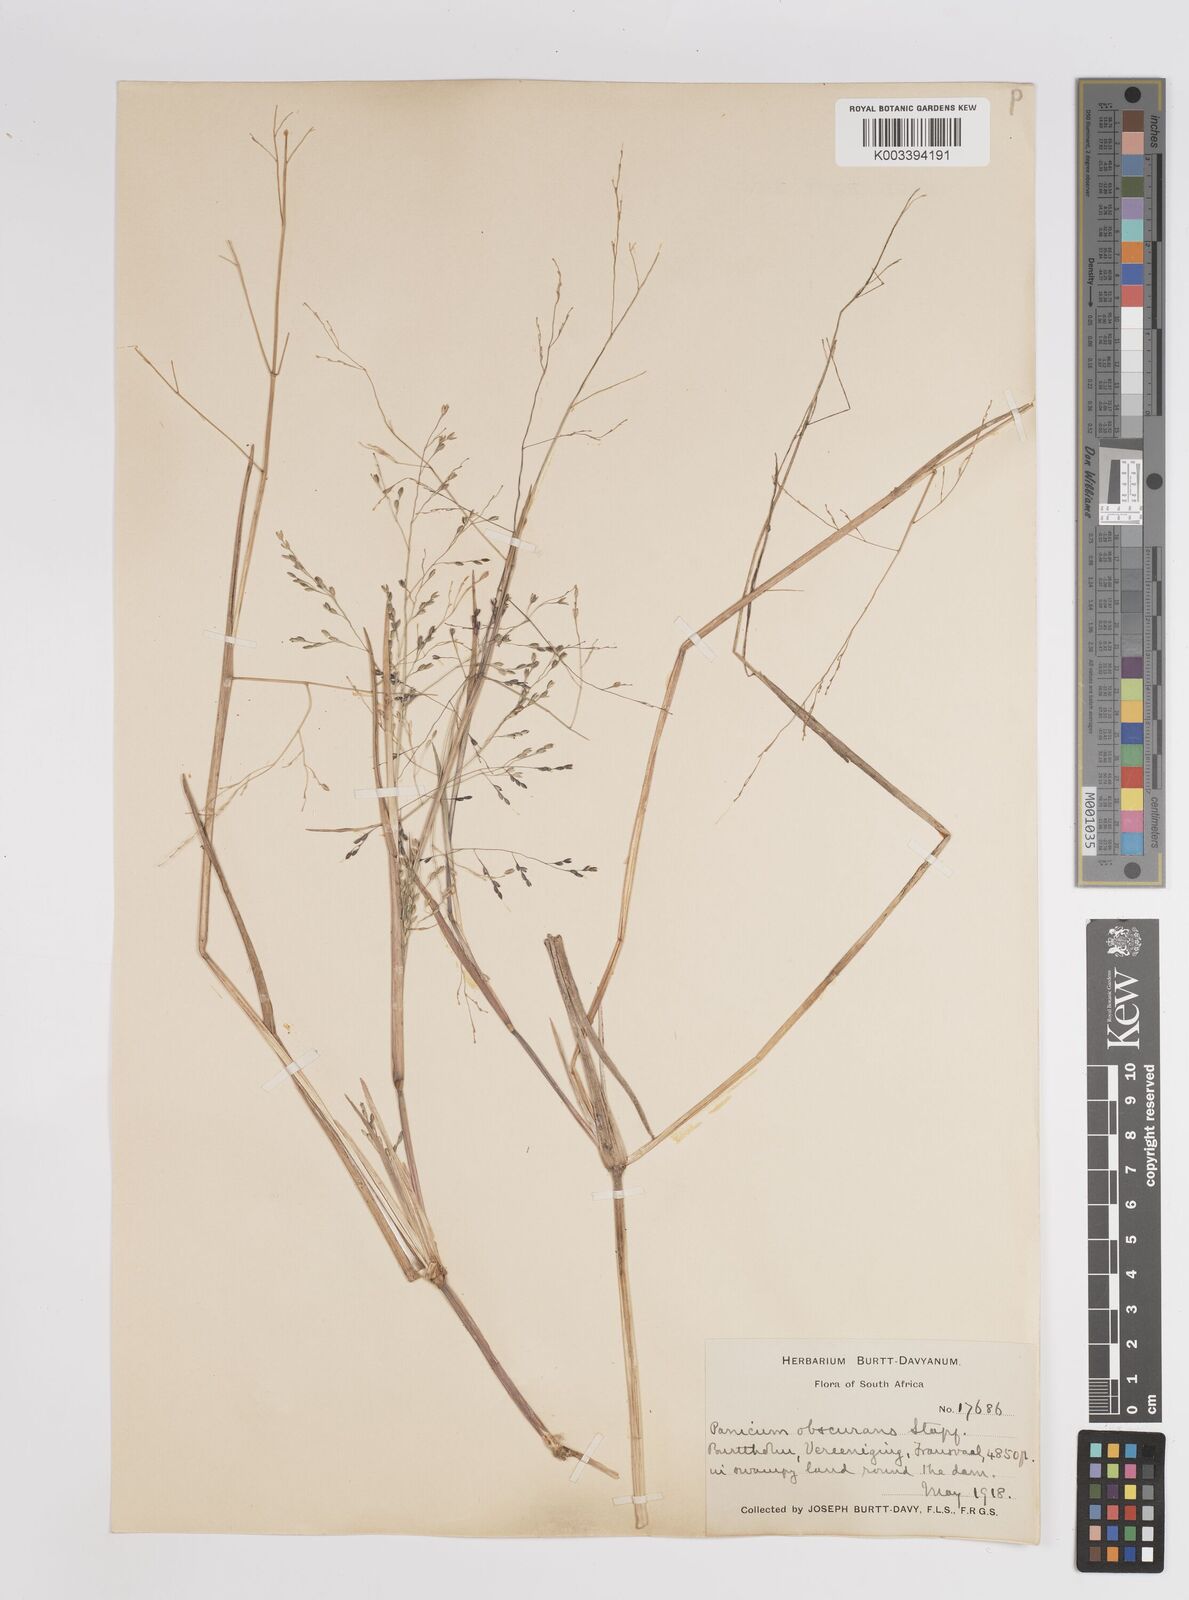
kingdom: Plantae
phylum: Tracheophyta
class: Liliopsida
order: Poales
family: Poaceae
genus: Panicum
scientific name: Panicum schinzii
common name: Sweet grass
